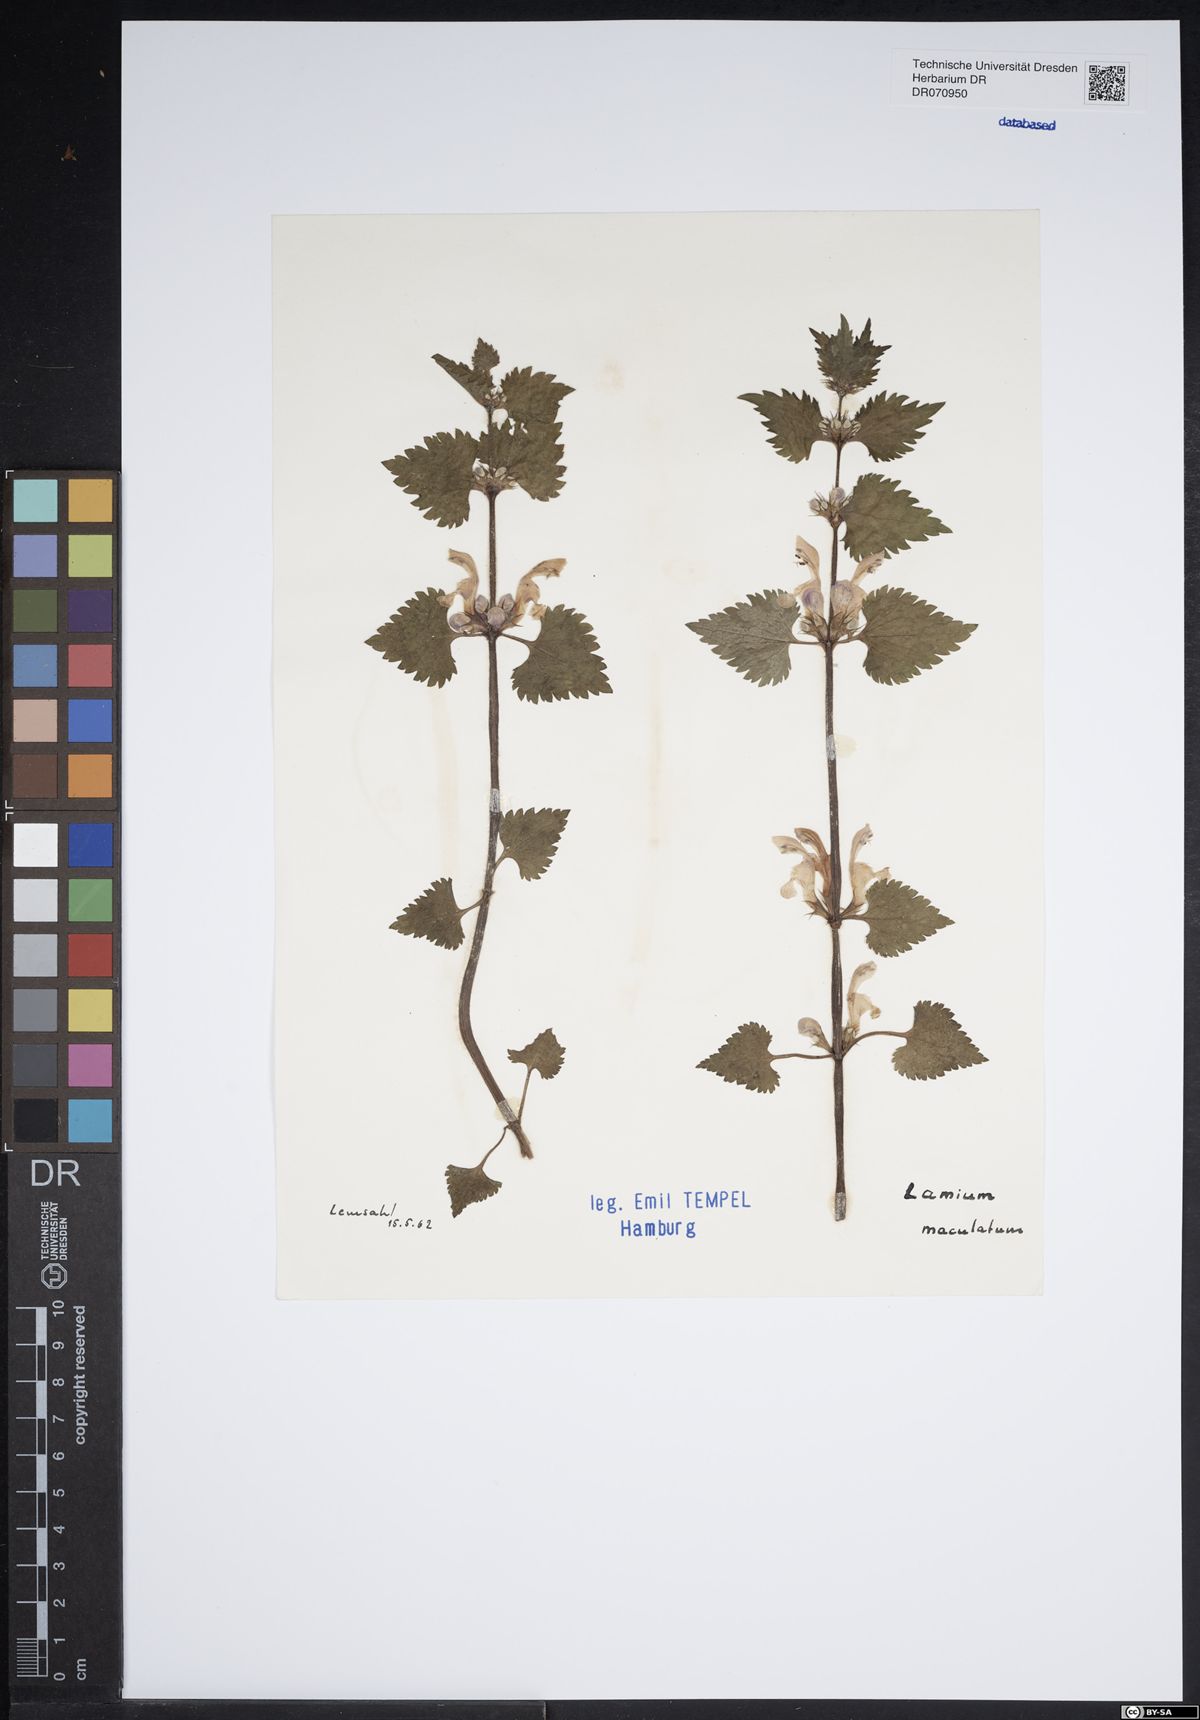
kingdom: Plantae
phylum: Tracheophyta
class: Magnoliopsida
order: Lamiales
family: Lamiaceae
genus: Lamium
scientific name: Lamium maculatum
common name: Spotted dead-nettle
